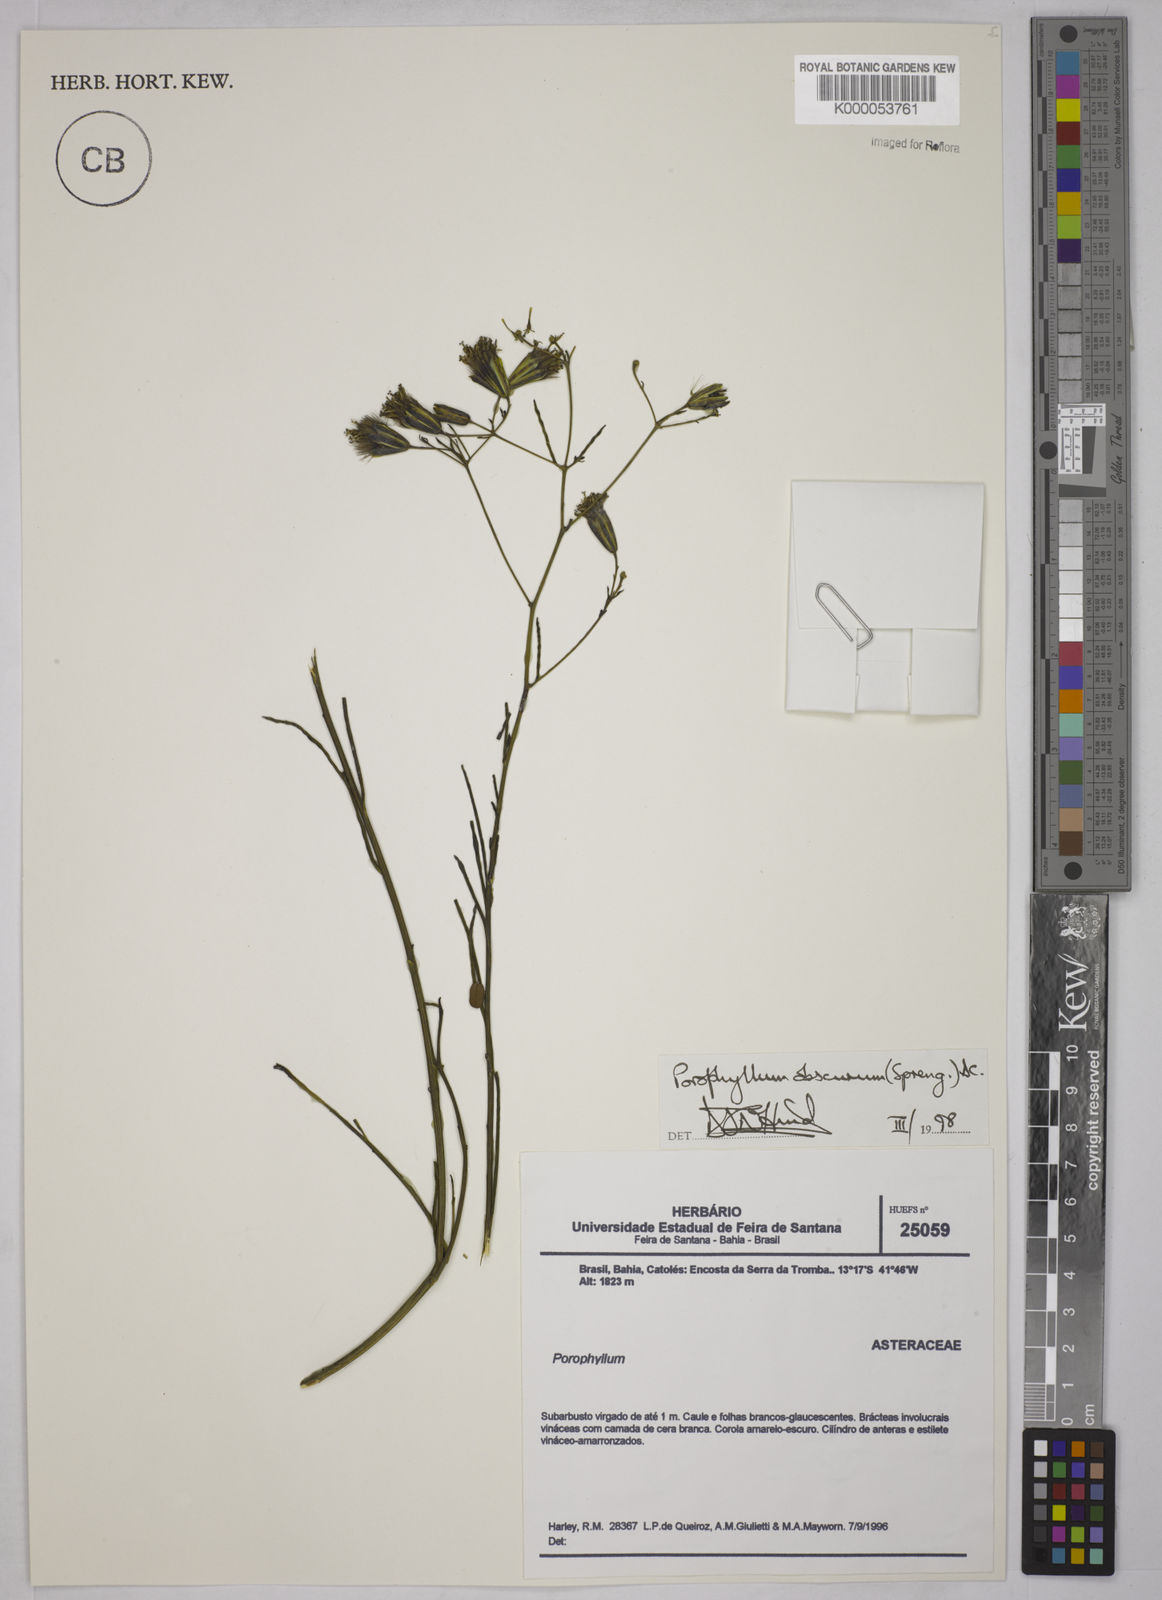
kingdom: Plantae
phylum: Tracheophyta
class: Magnoliopsida
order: Asterales
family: Asteraceae
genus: Porophyllum
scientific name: Porophyllum obscurum
